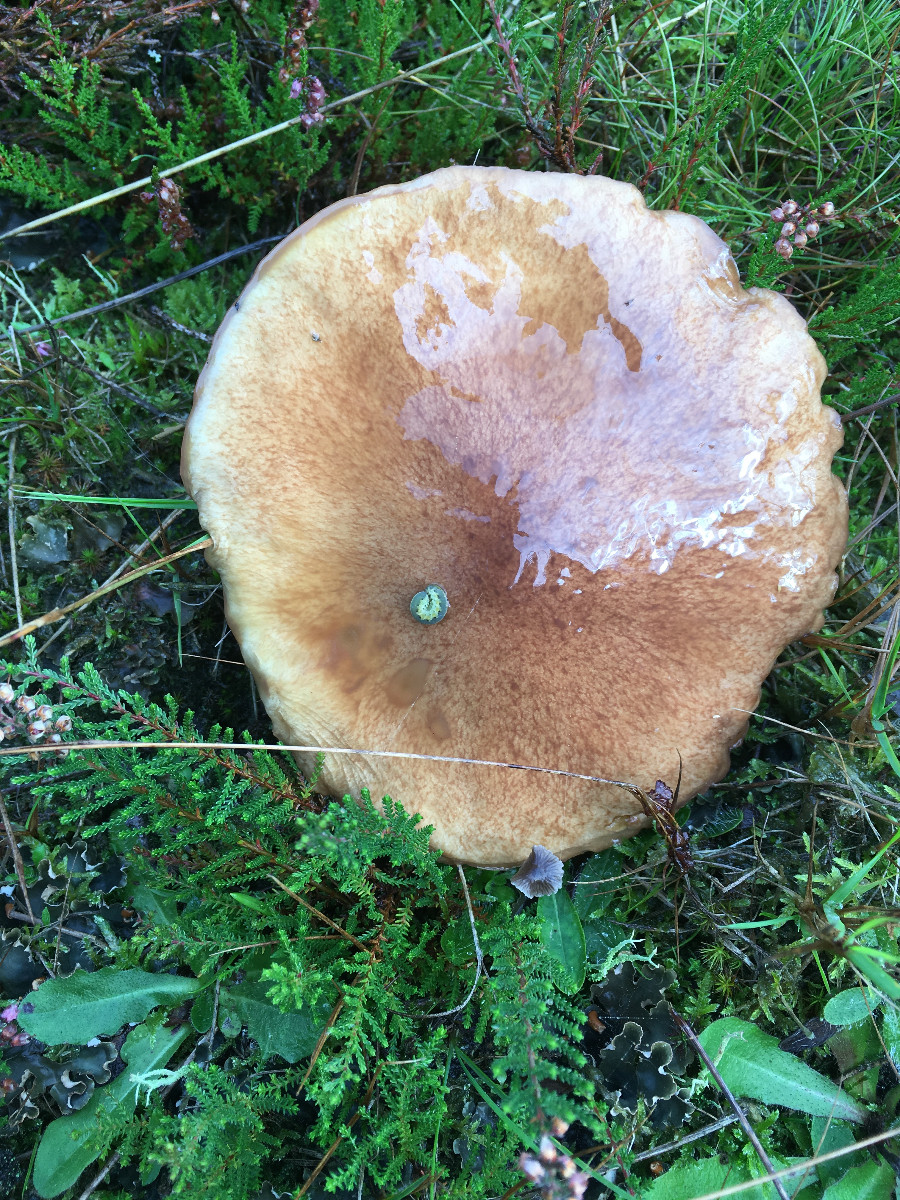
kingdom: Fungi
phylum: Basidiomycota
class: Agaricomycetes
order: Boletales
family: Suillaceae
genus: Suillus
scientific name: Suillus luteus
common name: brungul slimrørhat
